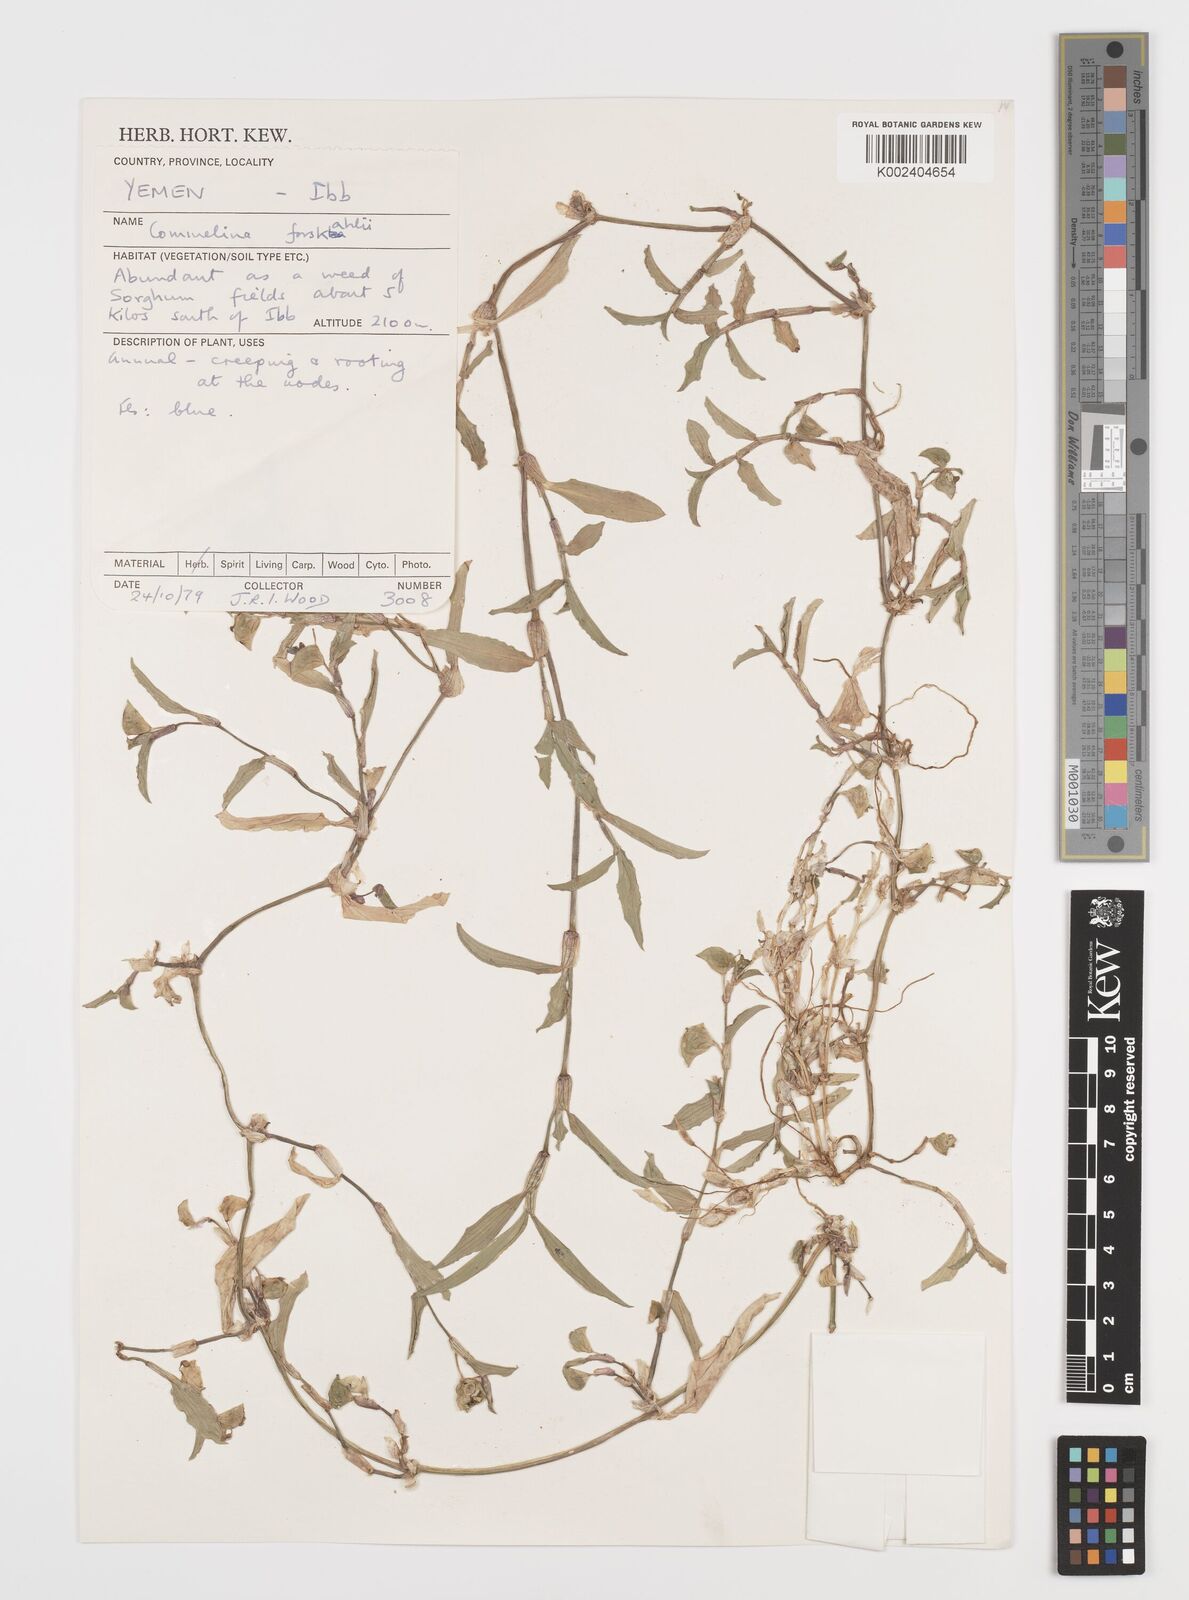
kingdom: Plantae
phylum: Tracheophyta
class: Liliopsida
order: Commelinales
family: Commelinaceae
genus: Commelina
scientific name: Commelina forskaolii
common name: Rat's ear
